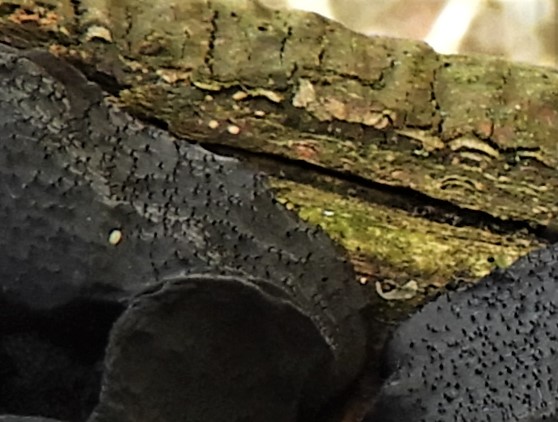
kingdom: Fungi
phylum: Basidiomycota
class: Agaricomycetes
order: Auriculariales
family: Auriculariaceae
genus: Exidia
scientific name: Exidia glandulosa
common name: ege-bævretop
